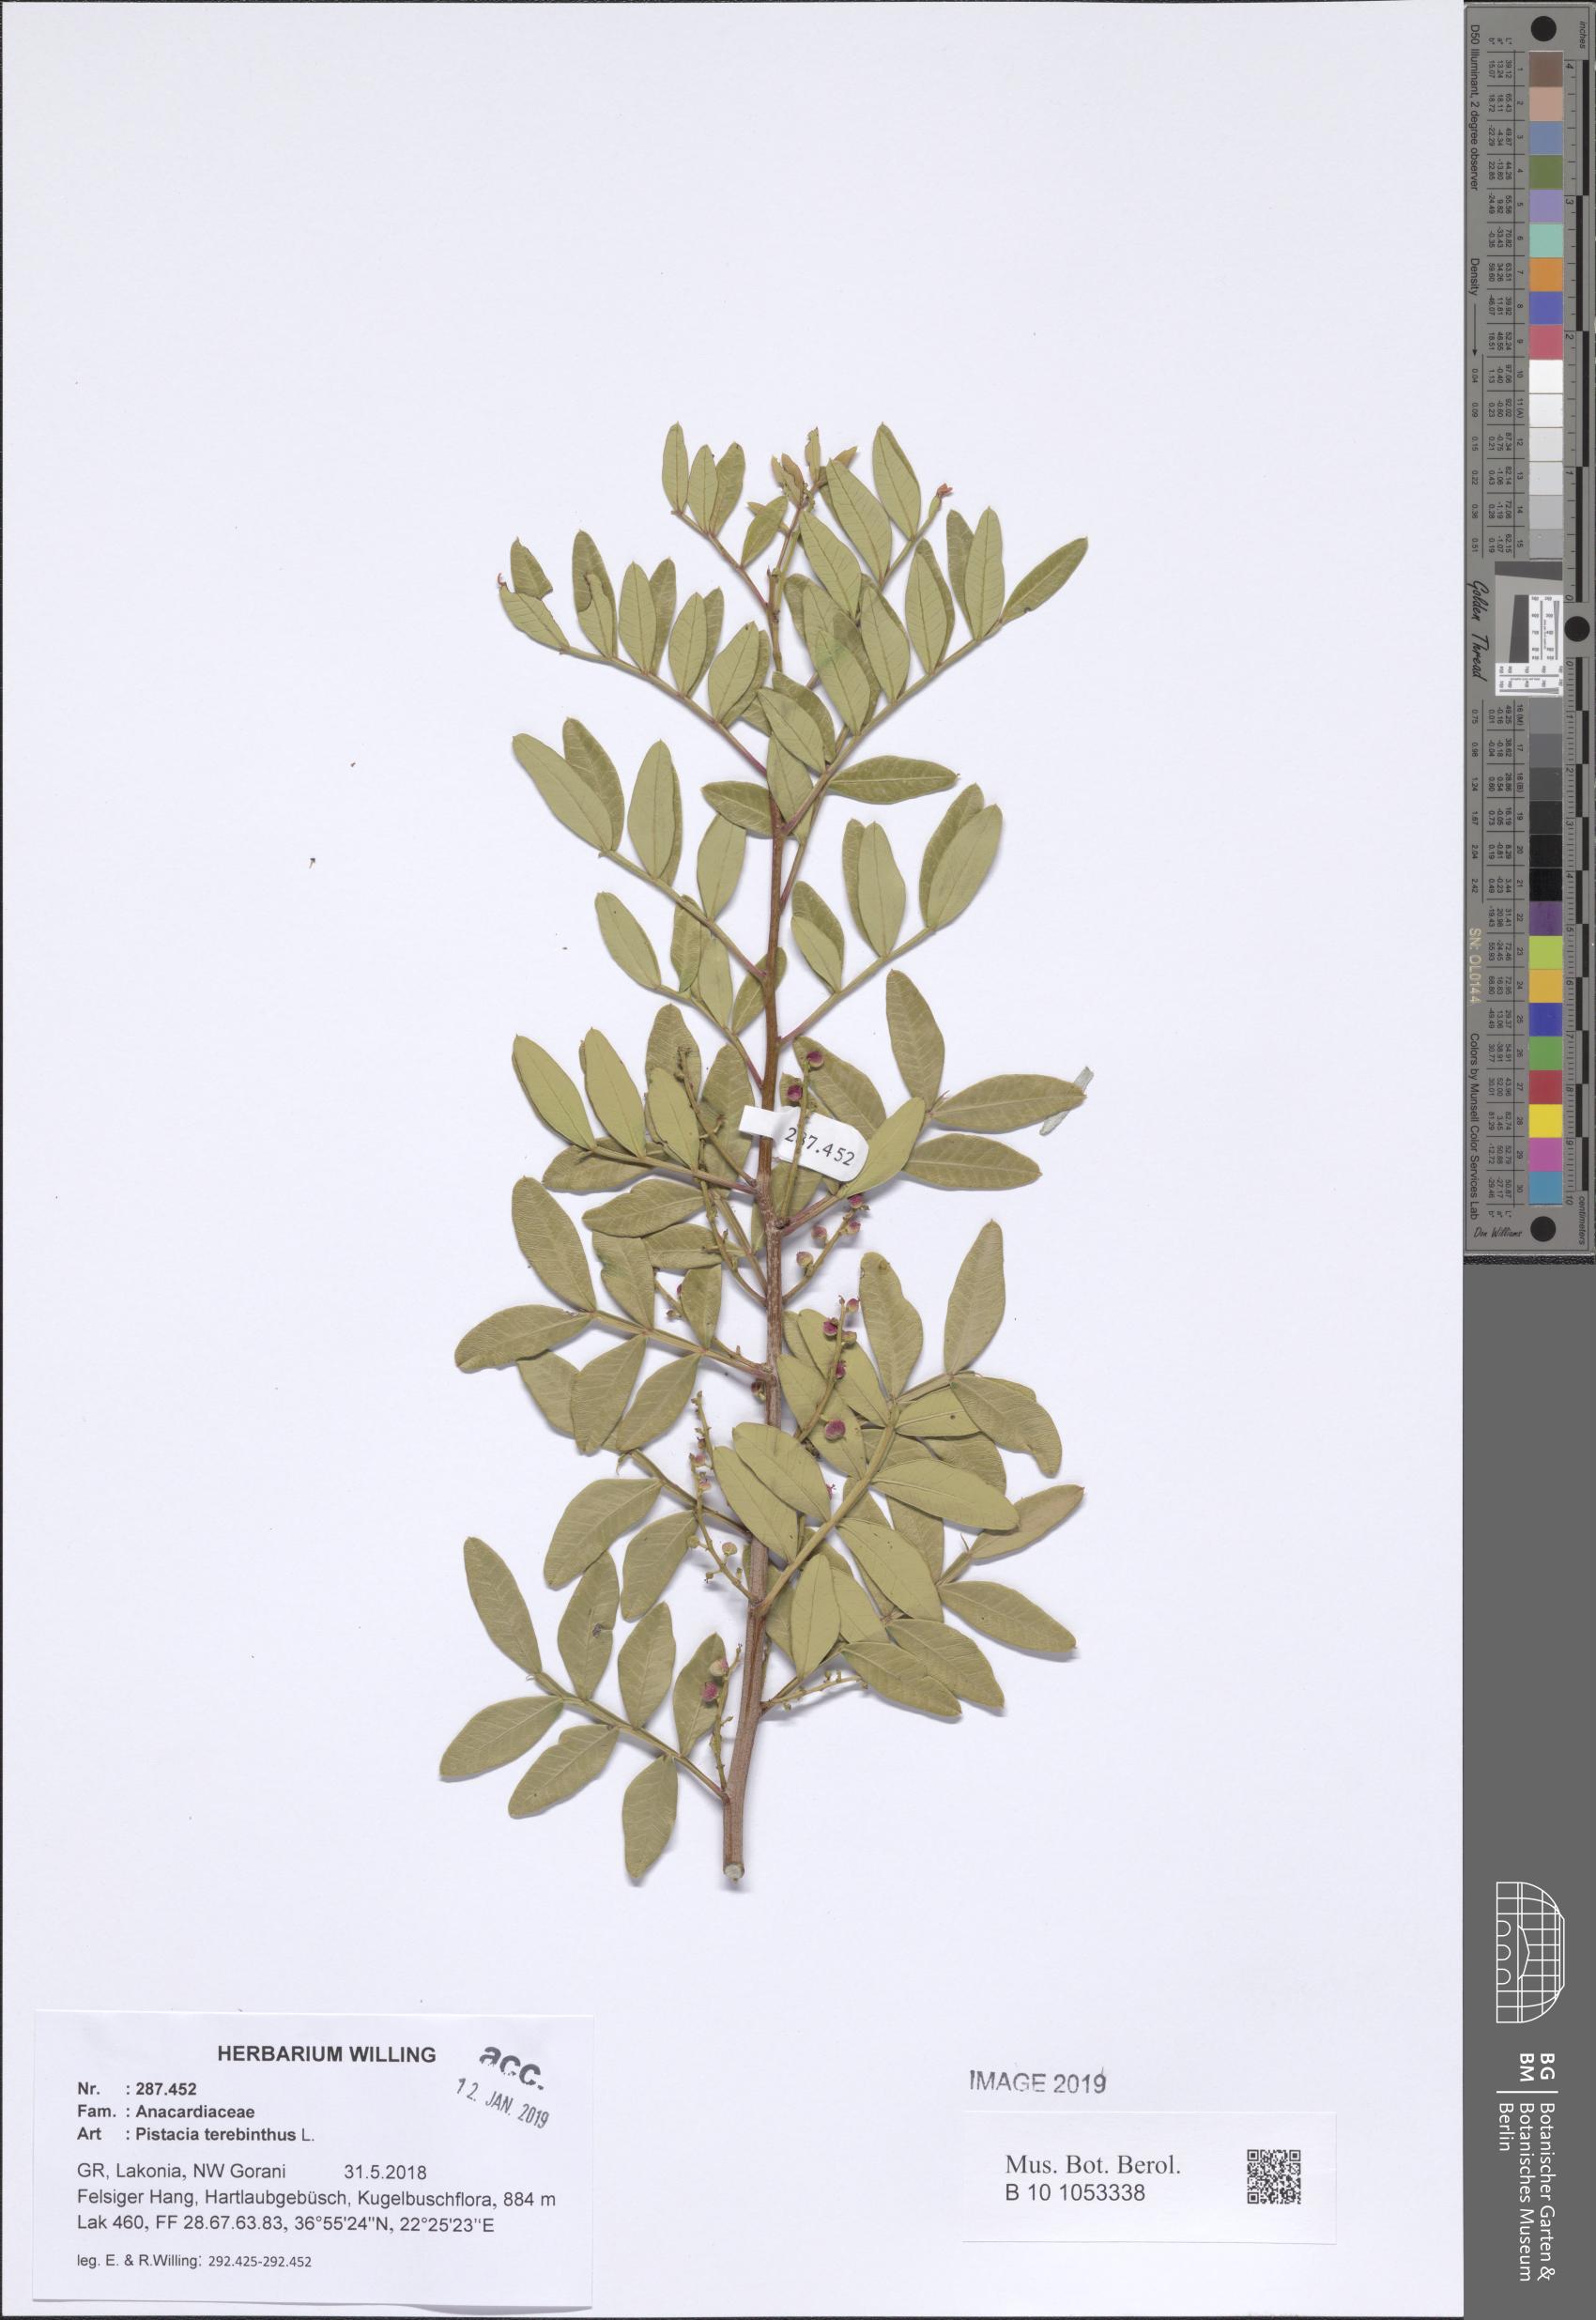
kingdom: Plantae
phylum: Tracheophyta
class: Magnoliopsida
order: Sapindales
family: Anacardiaceae
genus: Pistacia
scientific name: Pistacia terebinthus
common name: Terebinth
